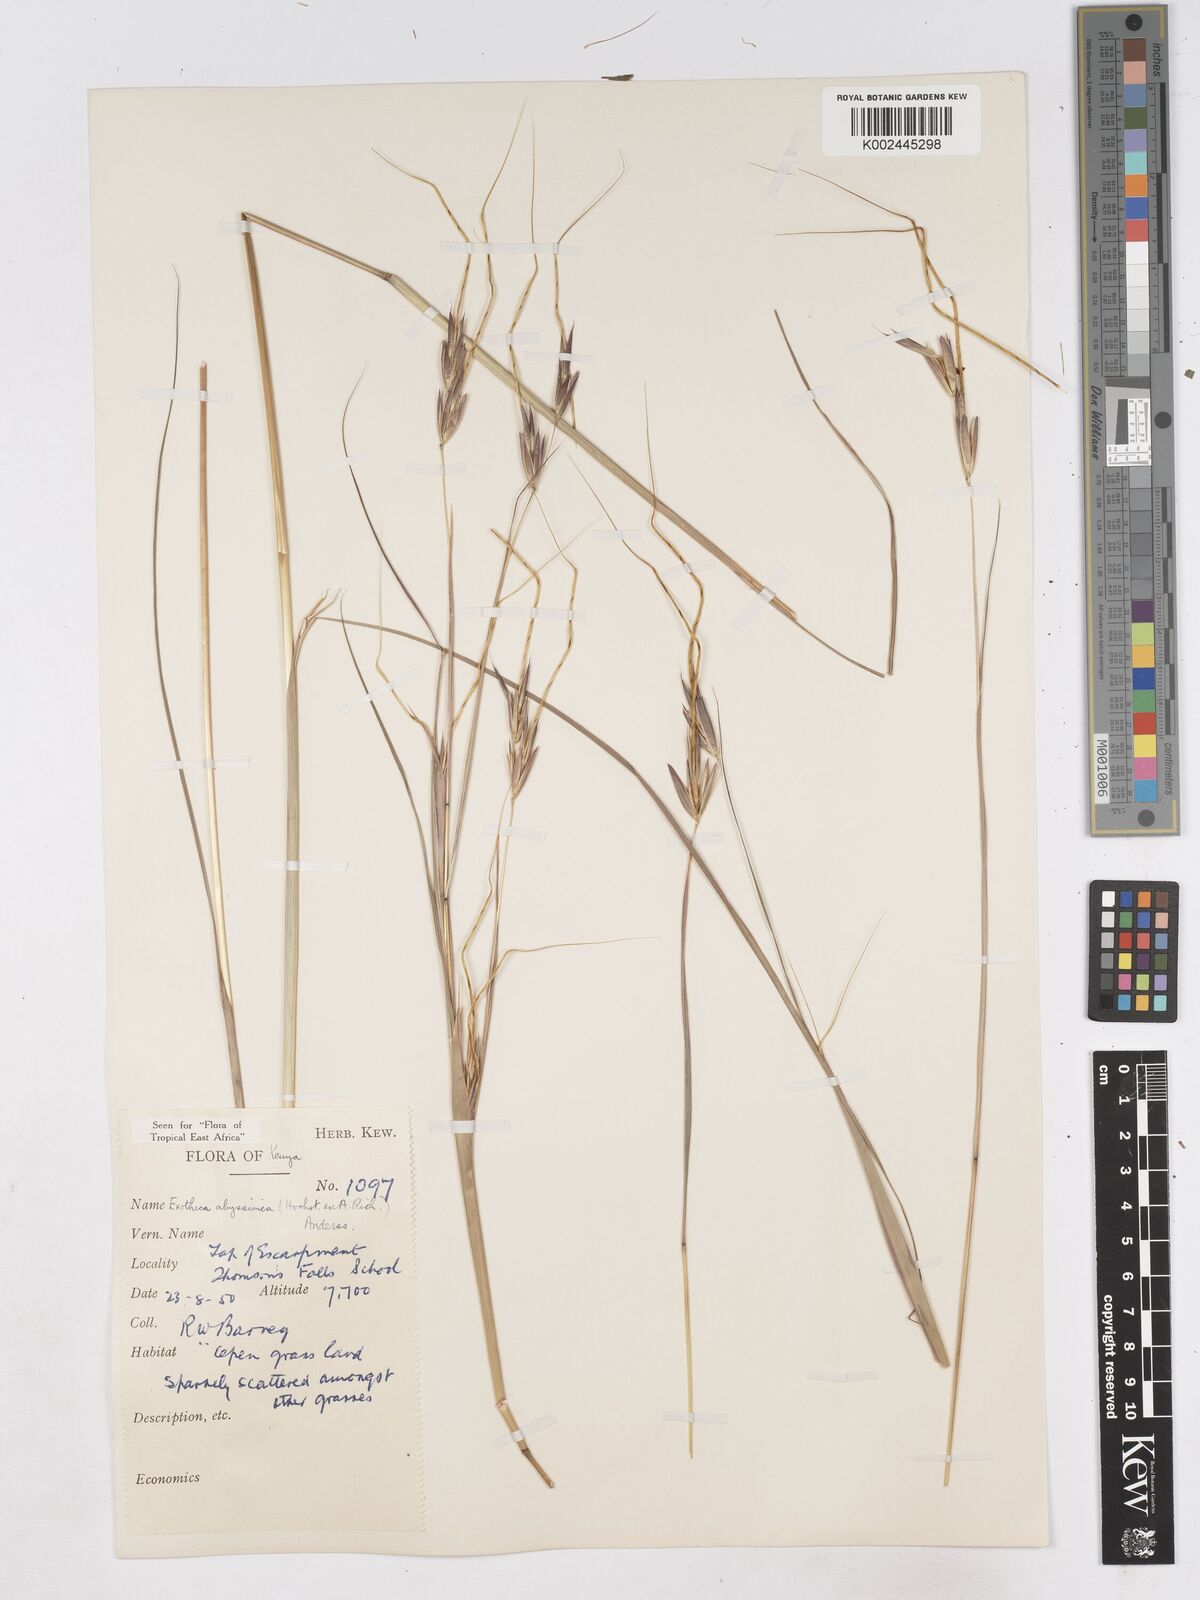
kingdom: Plantae
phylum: Tracheophyta
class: Liliopsida
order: Poales
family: Poaceae
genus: Exotheca
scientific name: Exotheca abyssinica
